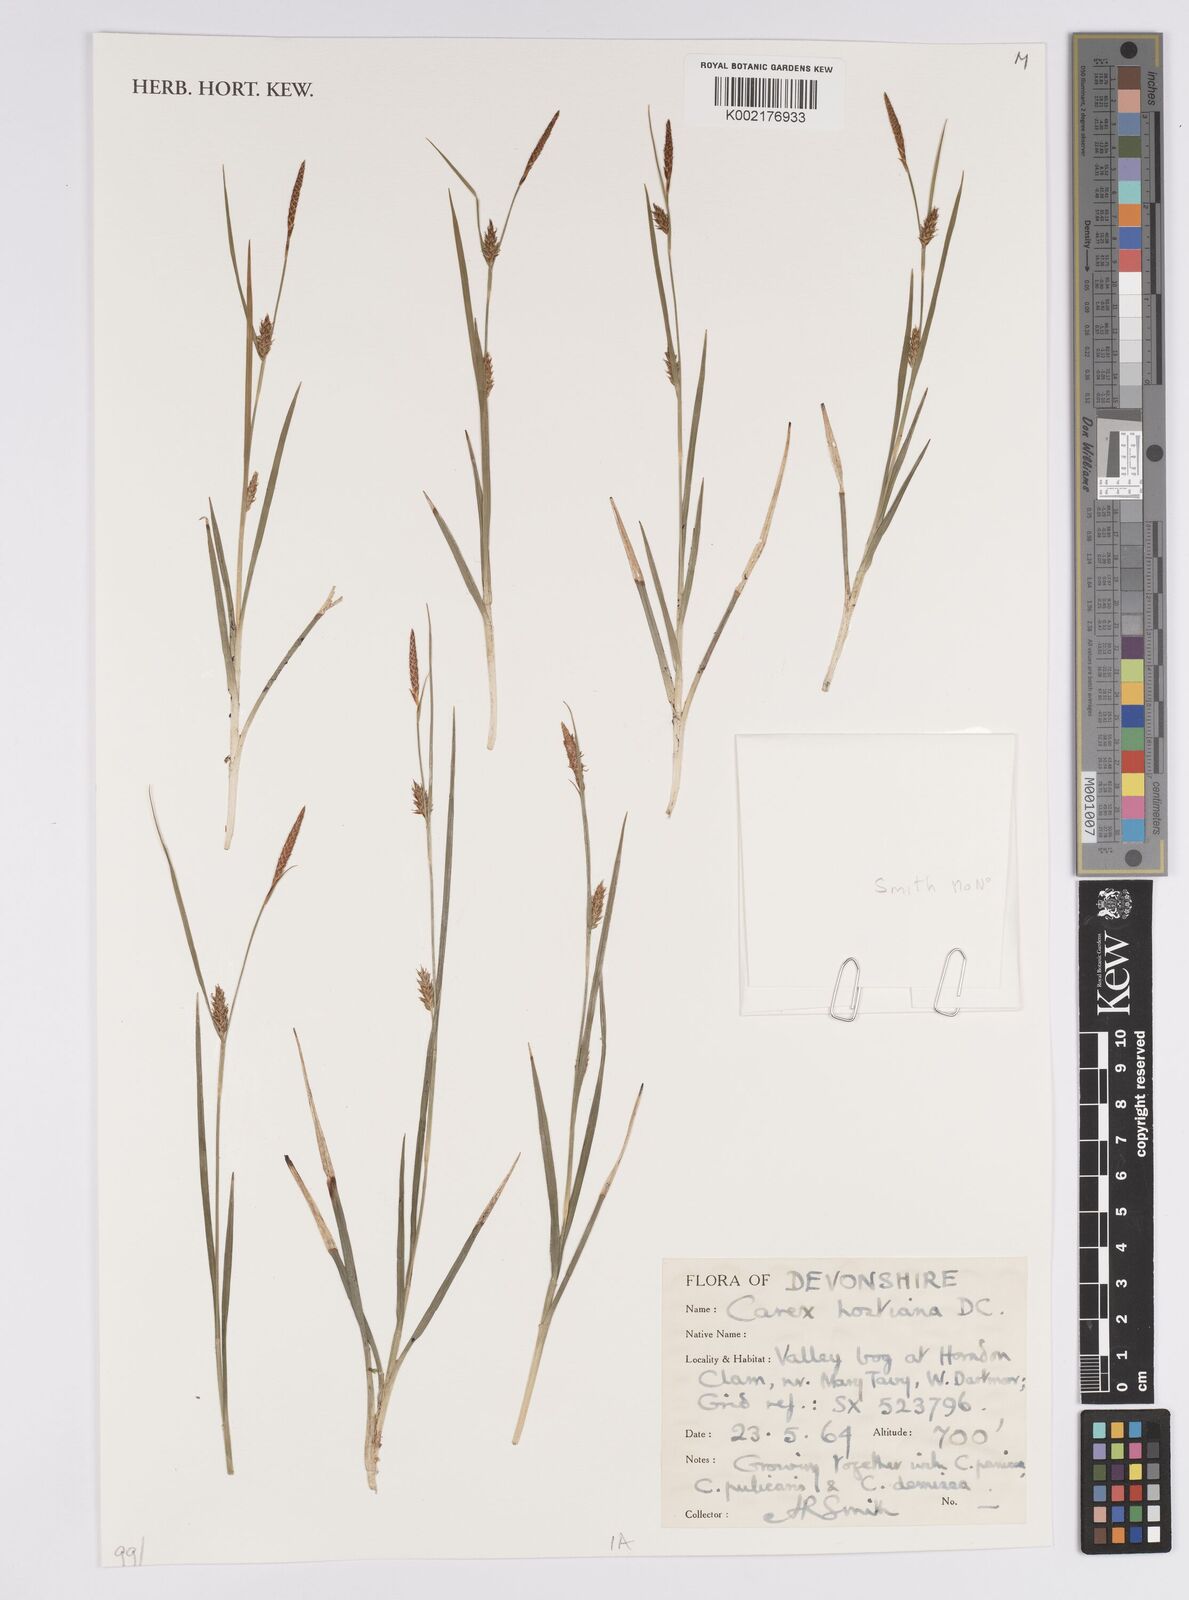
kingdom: Plantae
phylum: Tracheophyta
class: Liliopsida
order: Poales
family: Cyperaceae
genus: Carex
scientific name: Carex hostiana
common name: Tawny sedge
